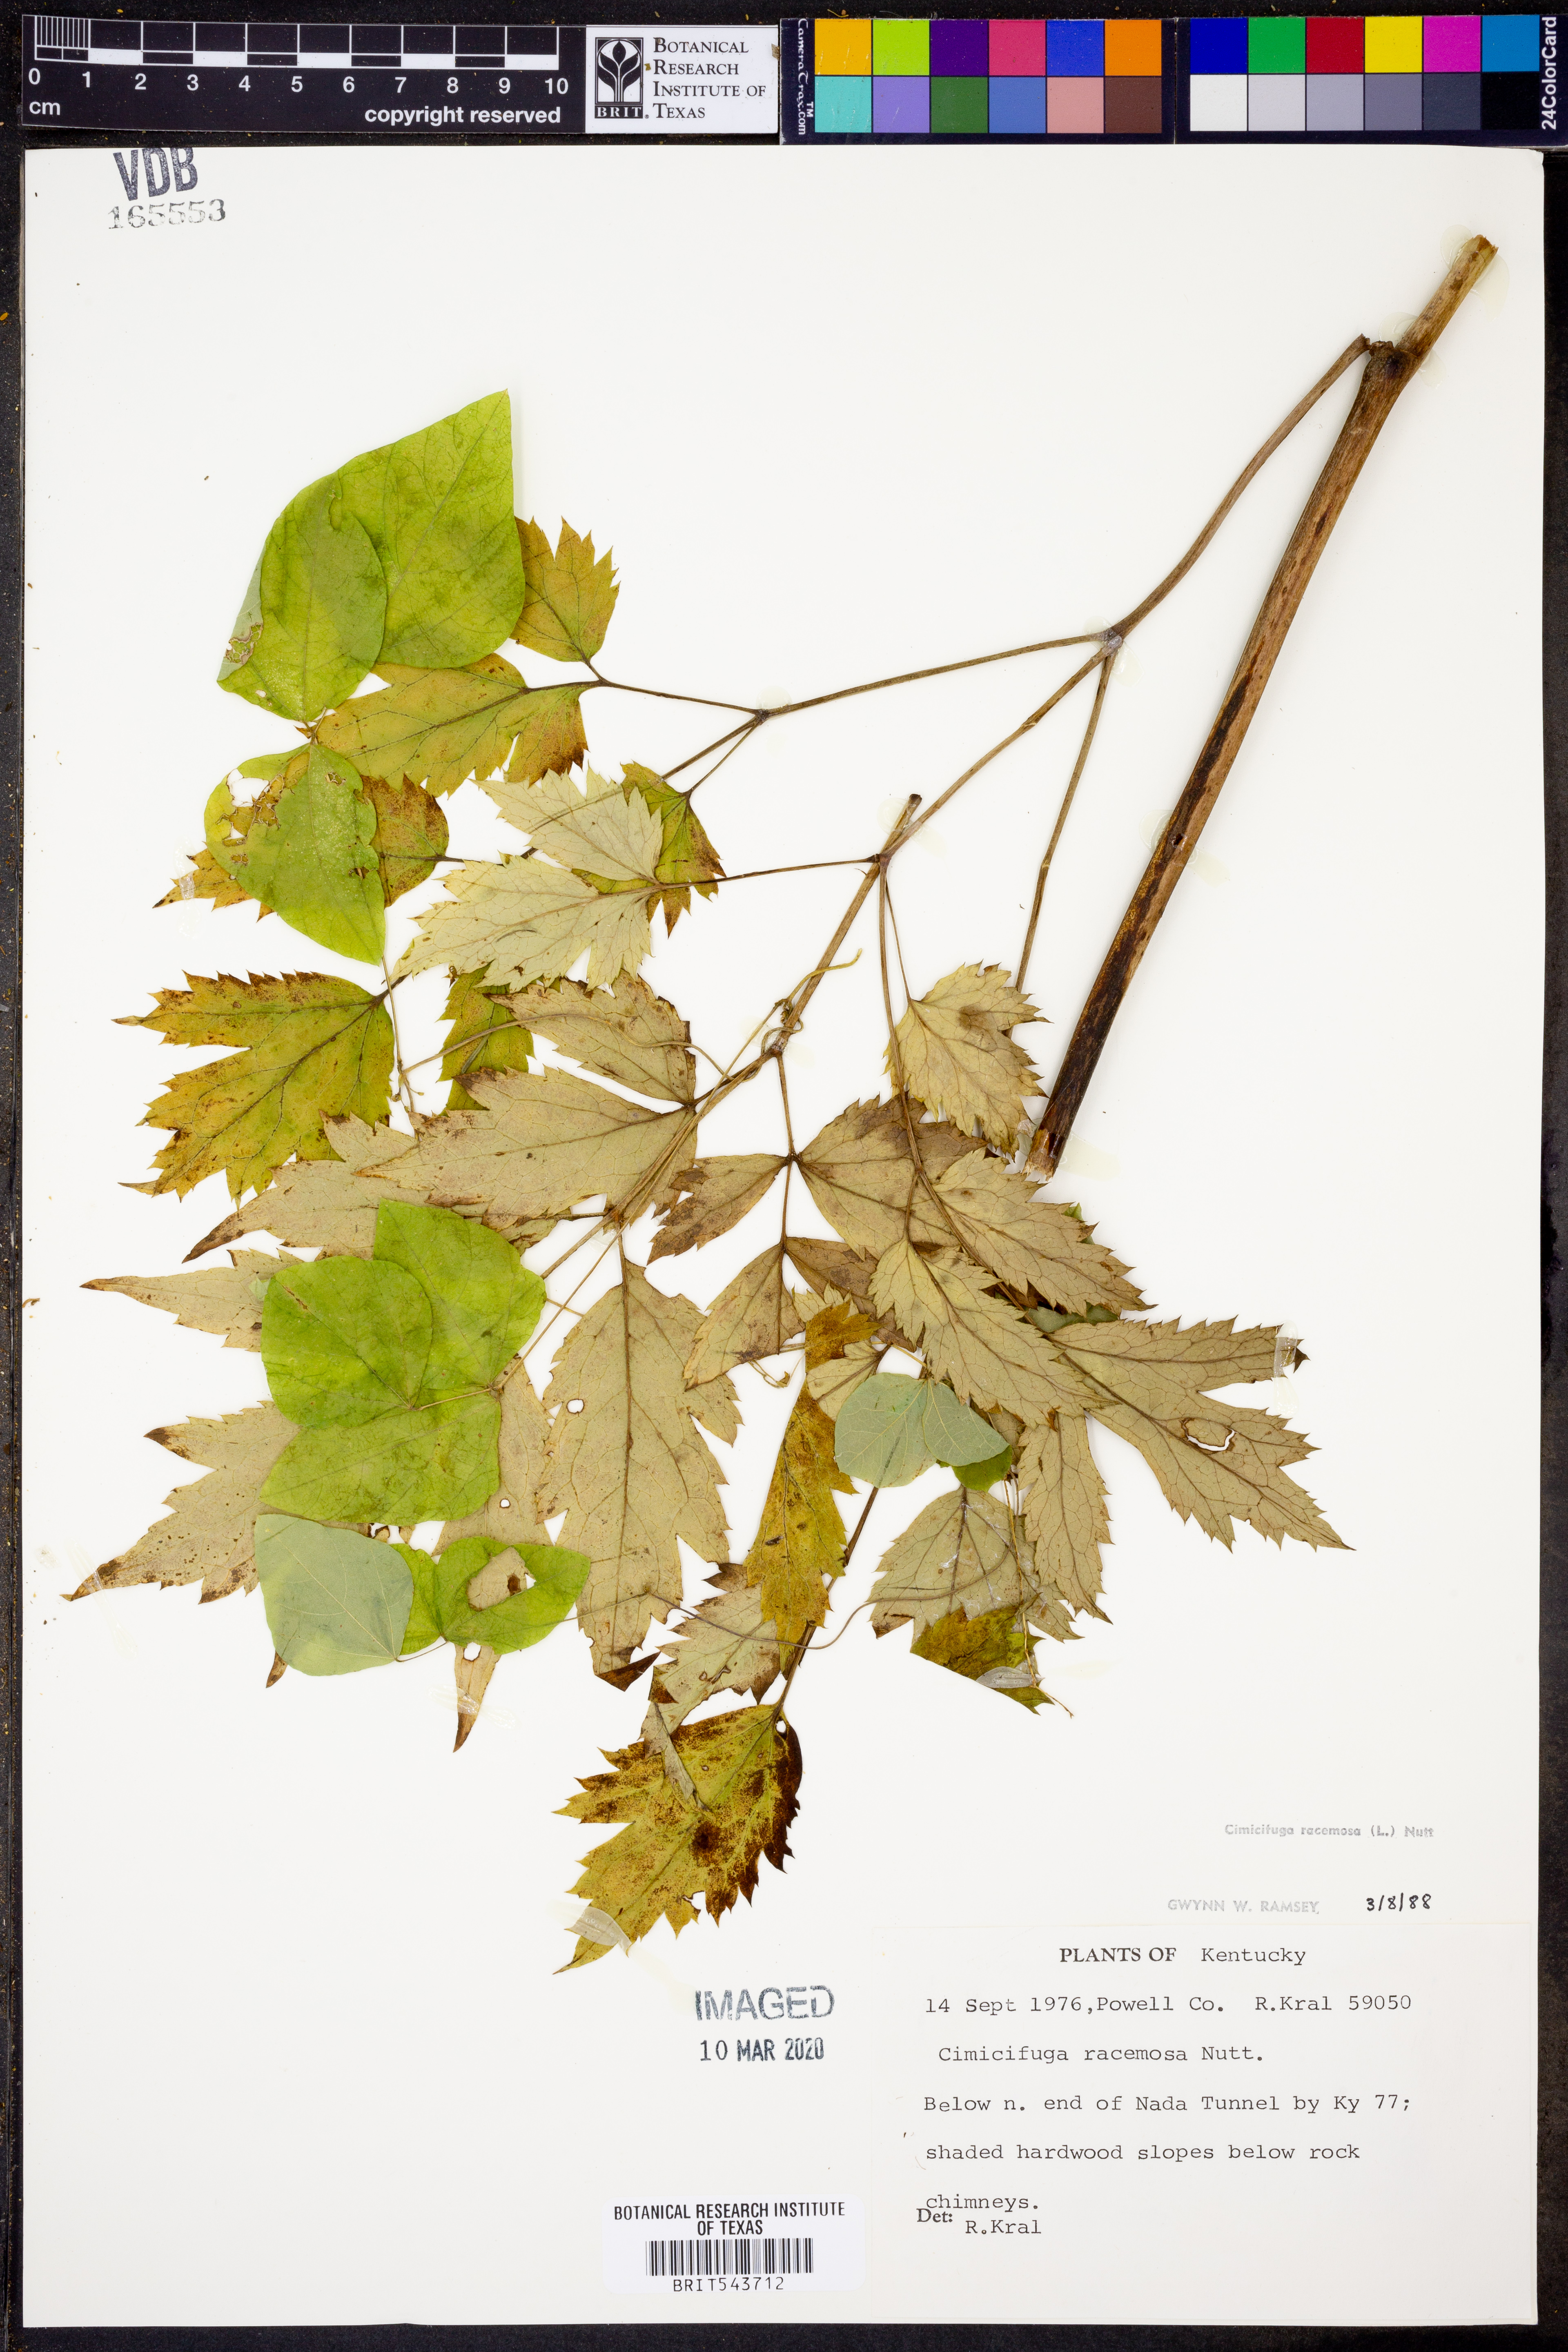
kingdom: Plantae
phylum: Tracheophyta
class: Magnoliopsida
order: Ranunculales
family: Ranunculaceae
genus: Actaea
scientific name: Actaea racemosa
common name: Black cohosh
